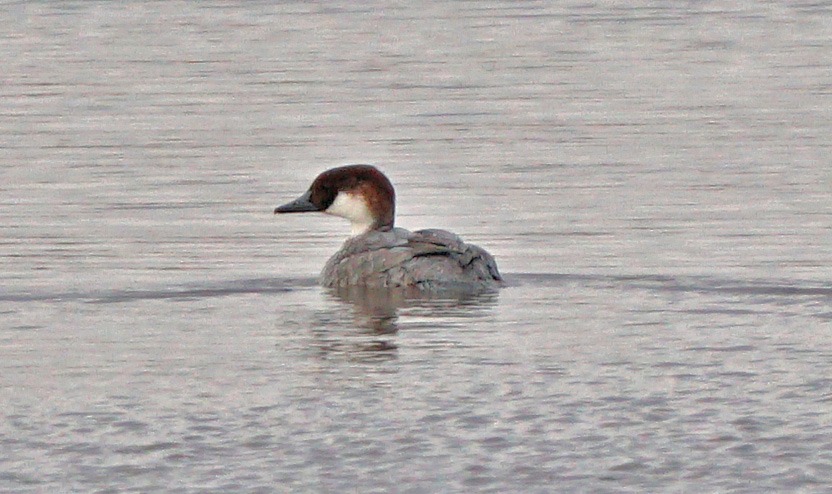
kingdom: Animalia
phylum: Chordata
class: Aves
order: Anseriformes
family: Anatidae
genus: Mergellus
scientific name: Mergellus albellus
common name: Lille skallesluger
